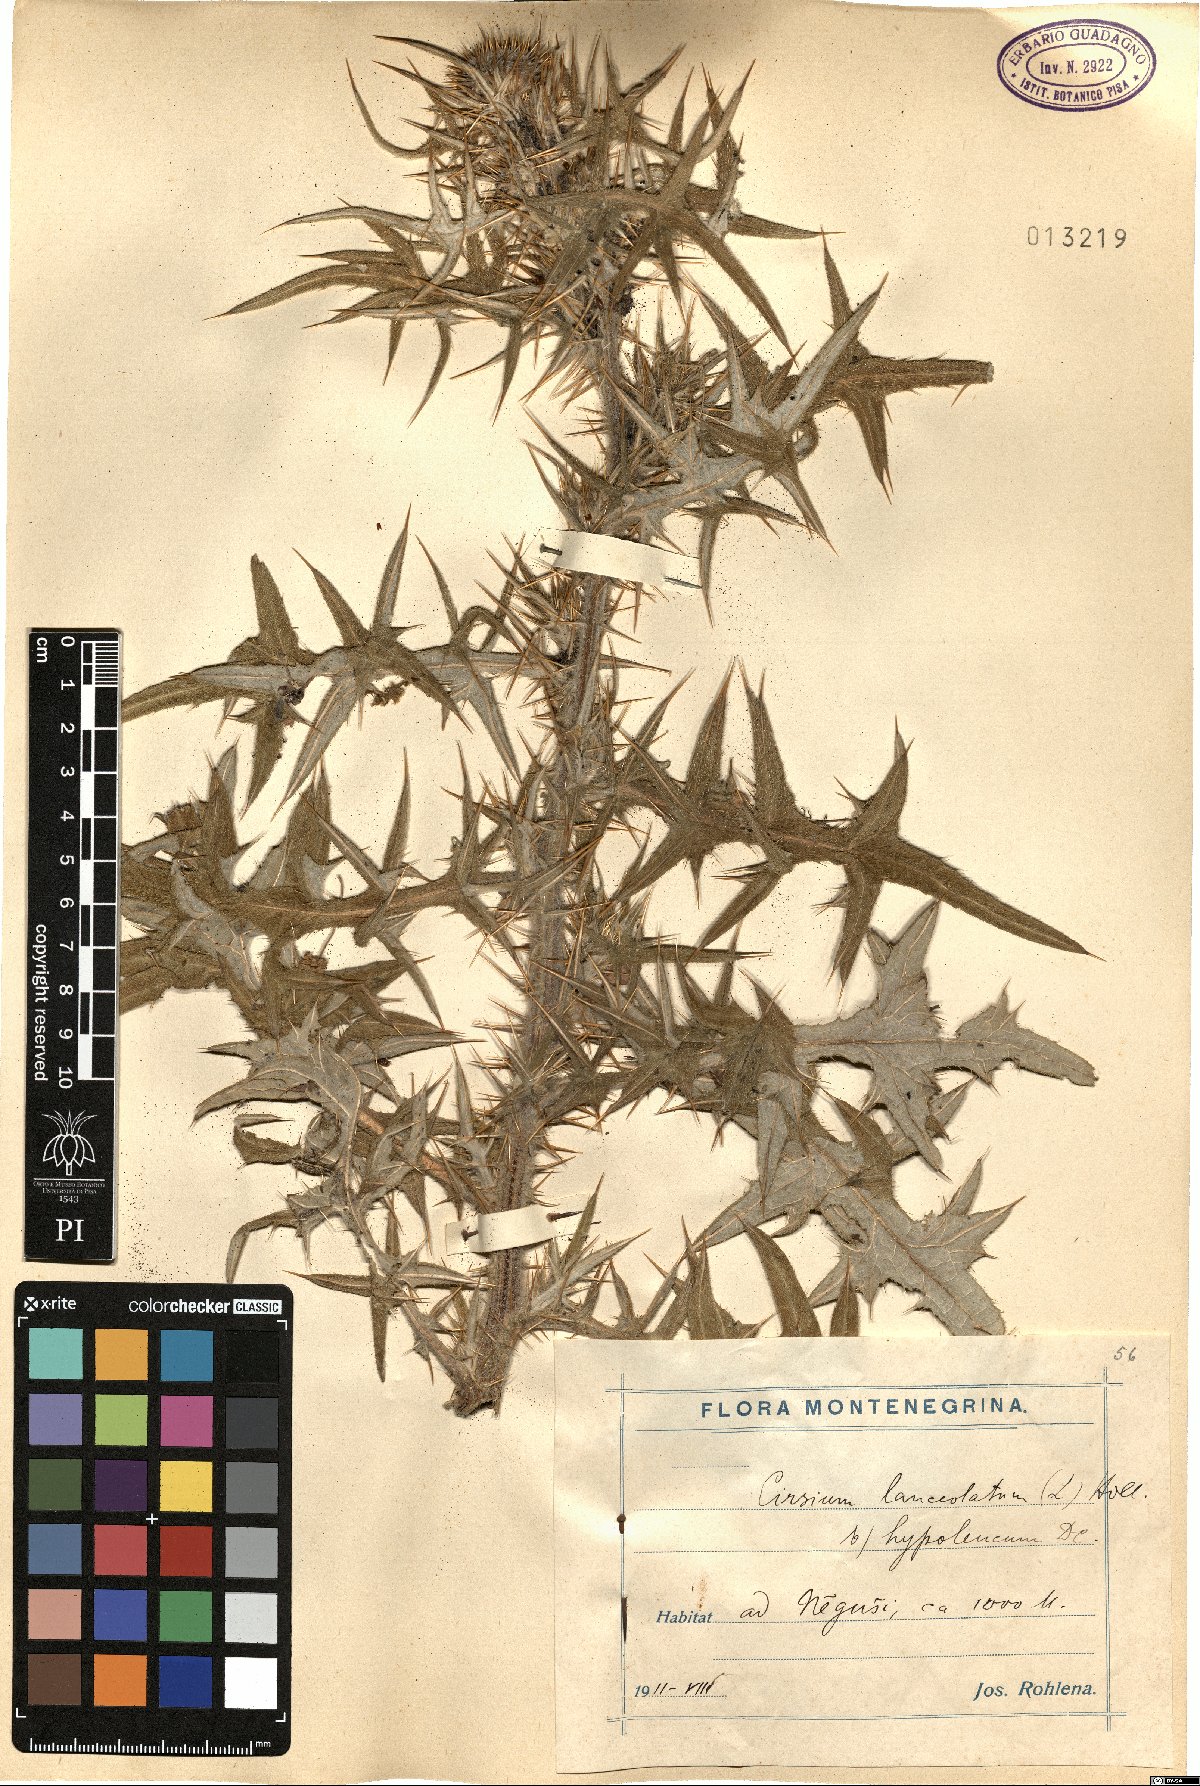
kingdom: Plantae
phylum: Tracheophyta
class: Magnoliopsida
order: Asterales
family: Asteraceae
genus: Cirsium
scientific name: Cirsium vulgare
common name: Bull thistle
